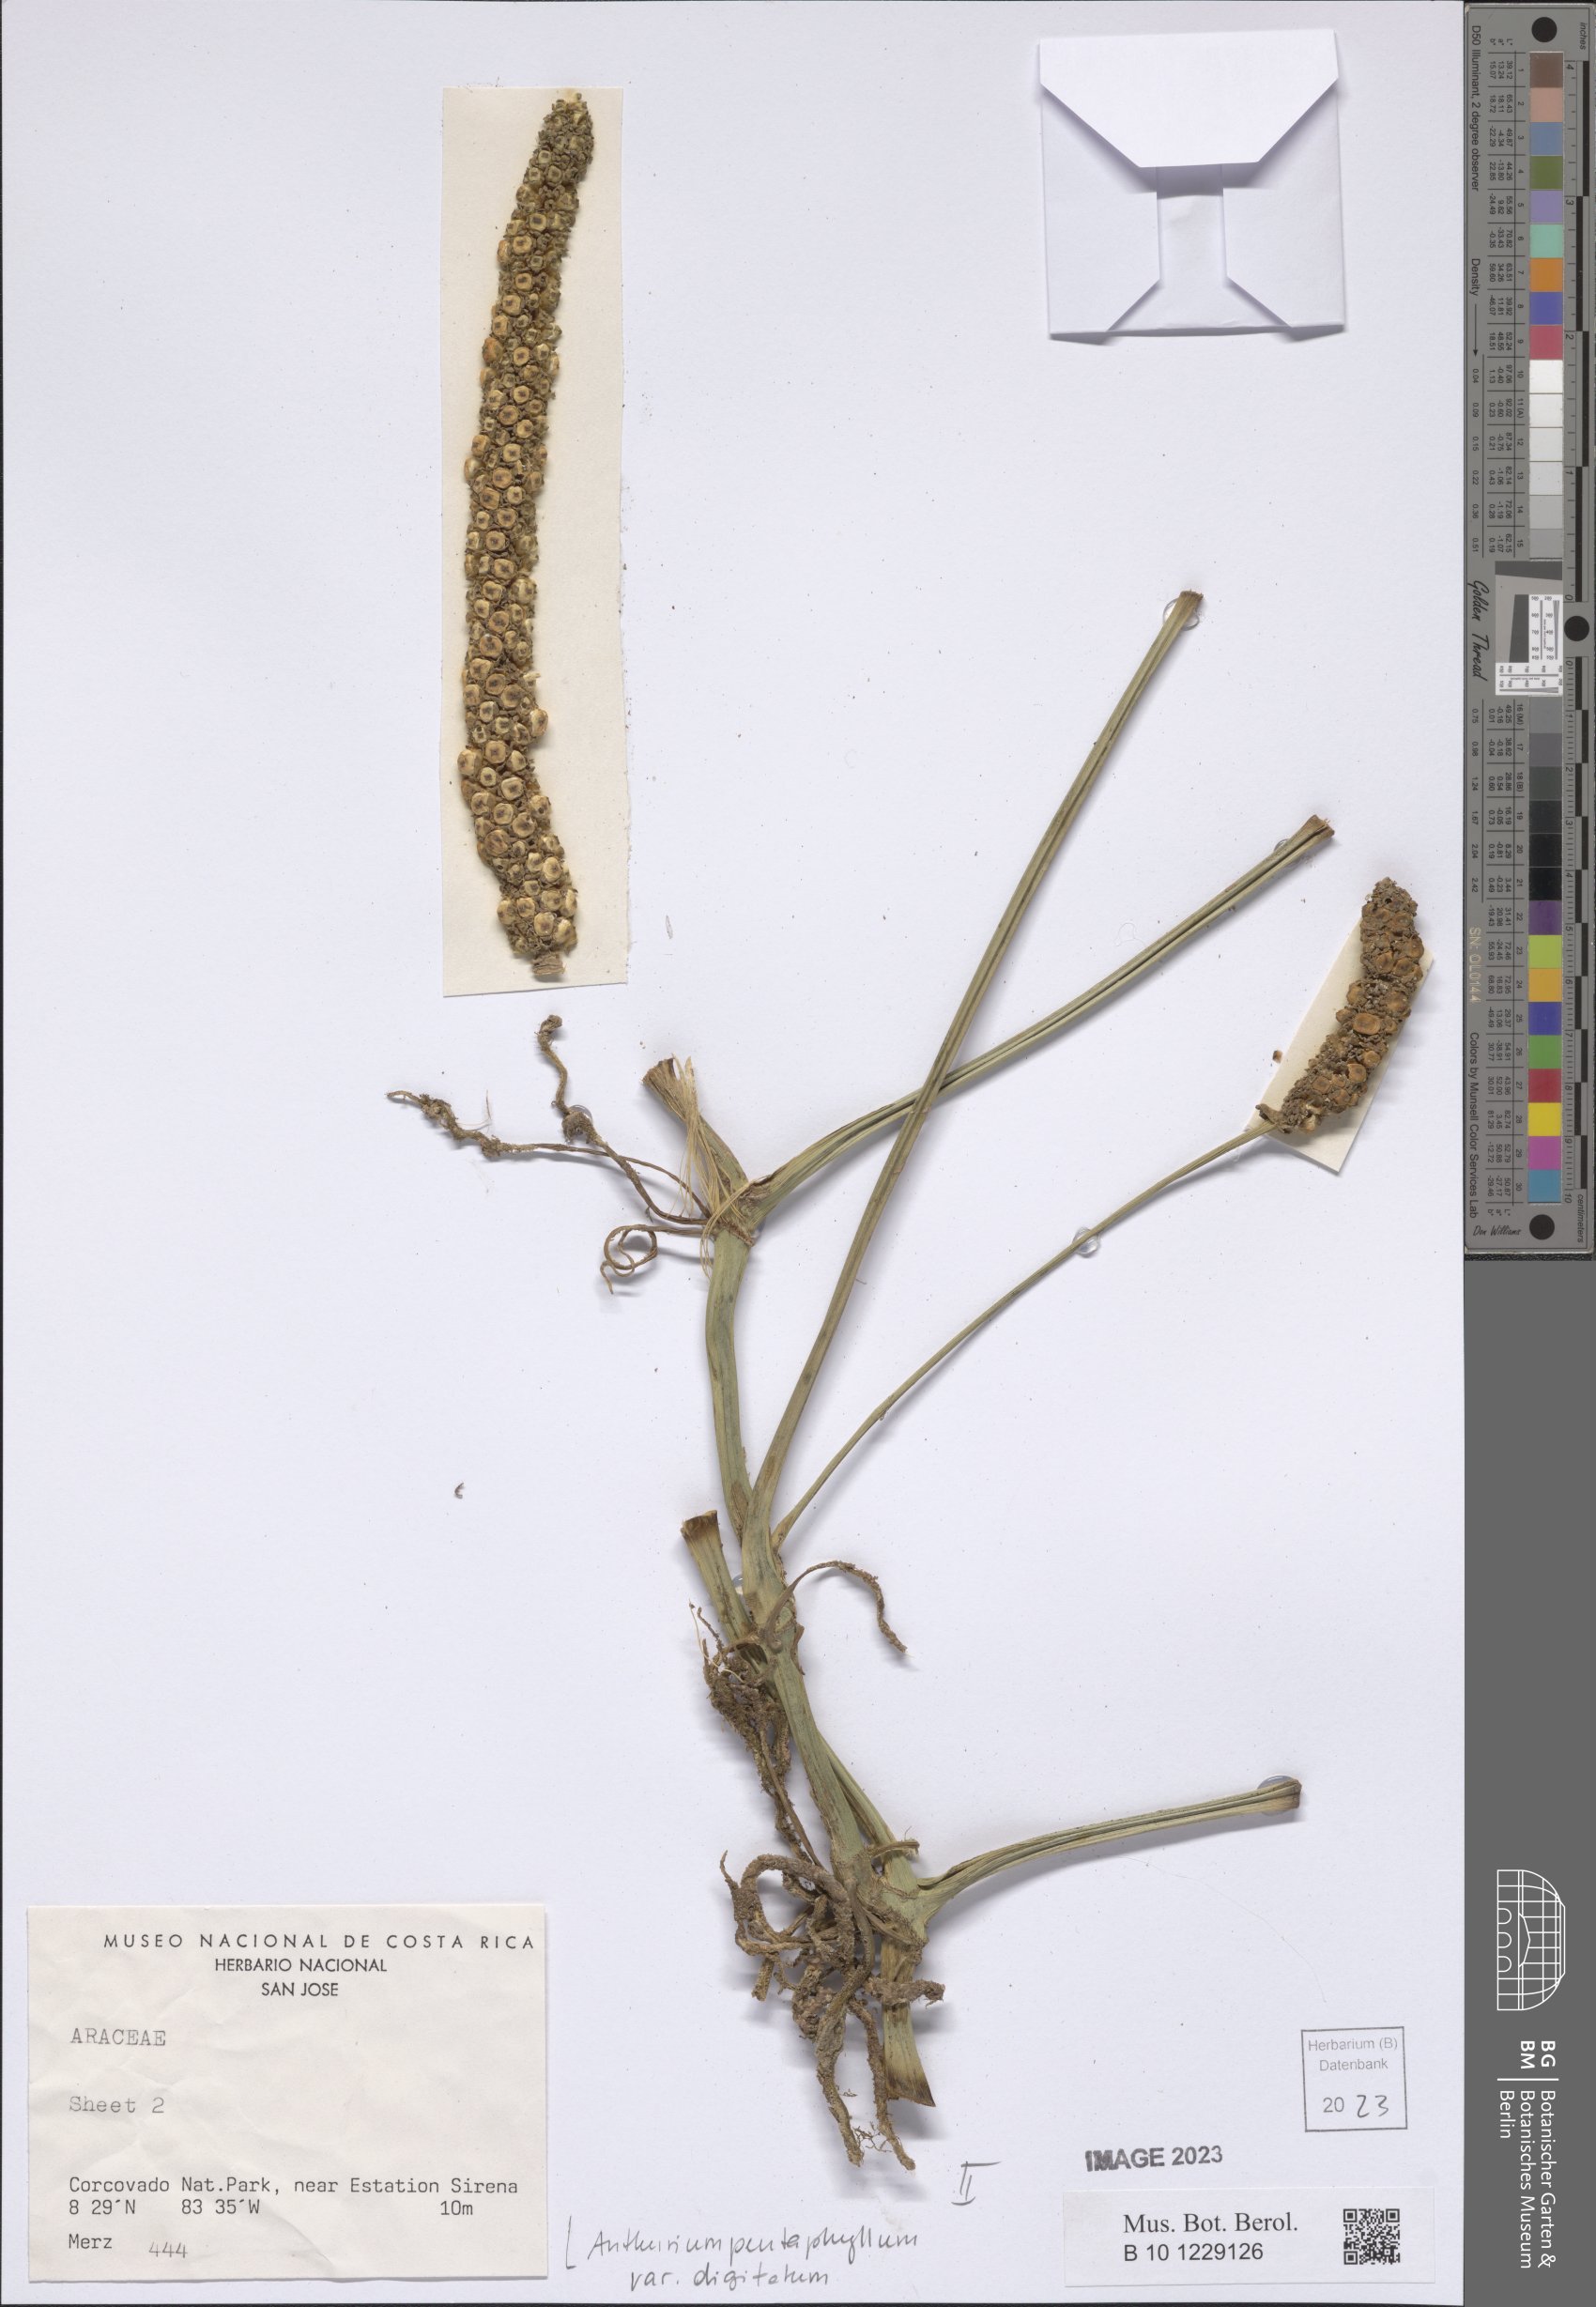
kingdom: Plantae
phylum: Tracheophyta
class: Liliopsida
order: Alismatales
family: Araceae
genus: Anthurium
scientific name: Anthurium digitatum
